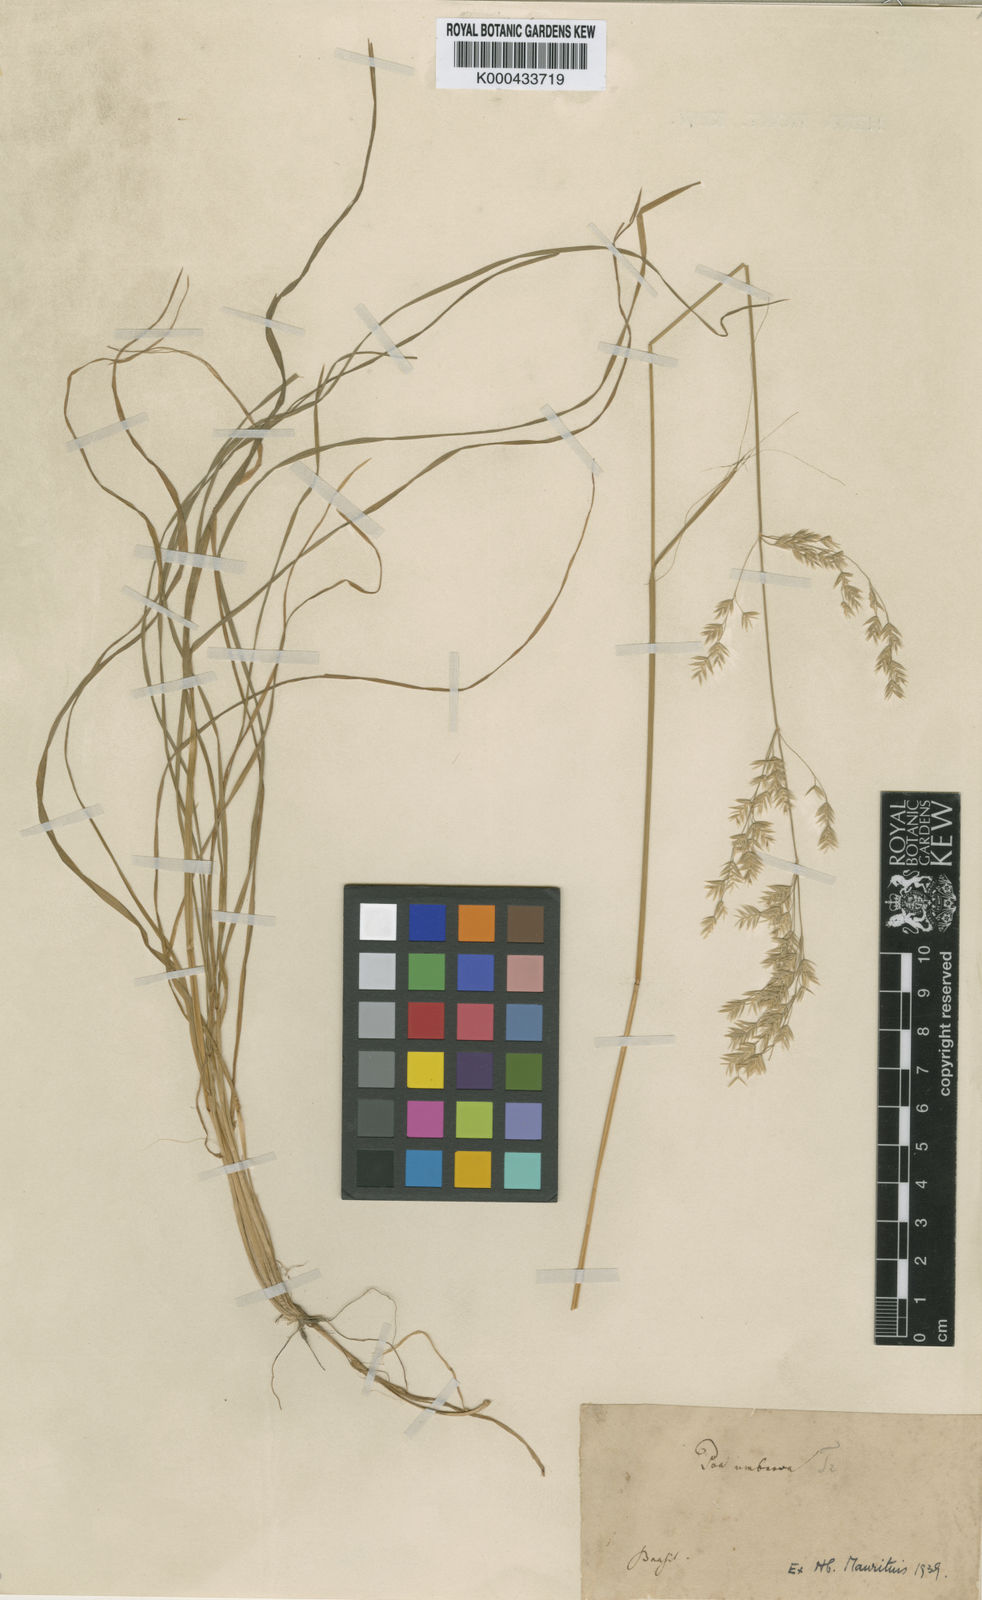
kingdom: Plantae
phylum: Tracheophyta
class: Liliopsida
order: Poales
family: Poaceae
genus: Poa
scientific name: Poa umbrosa
